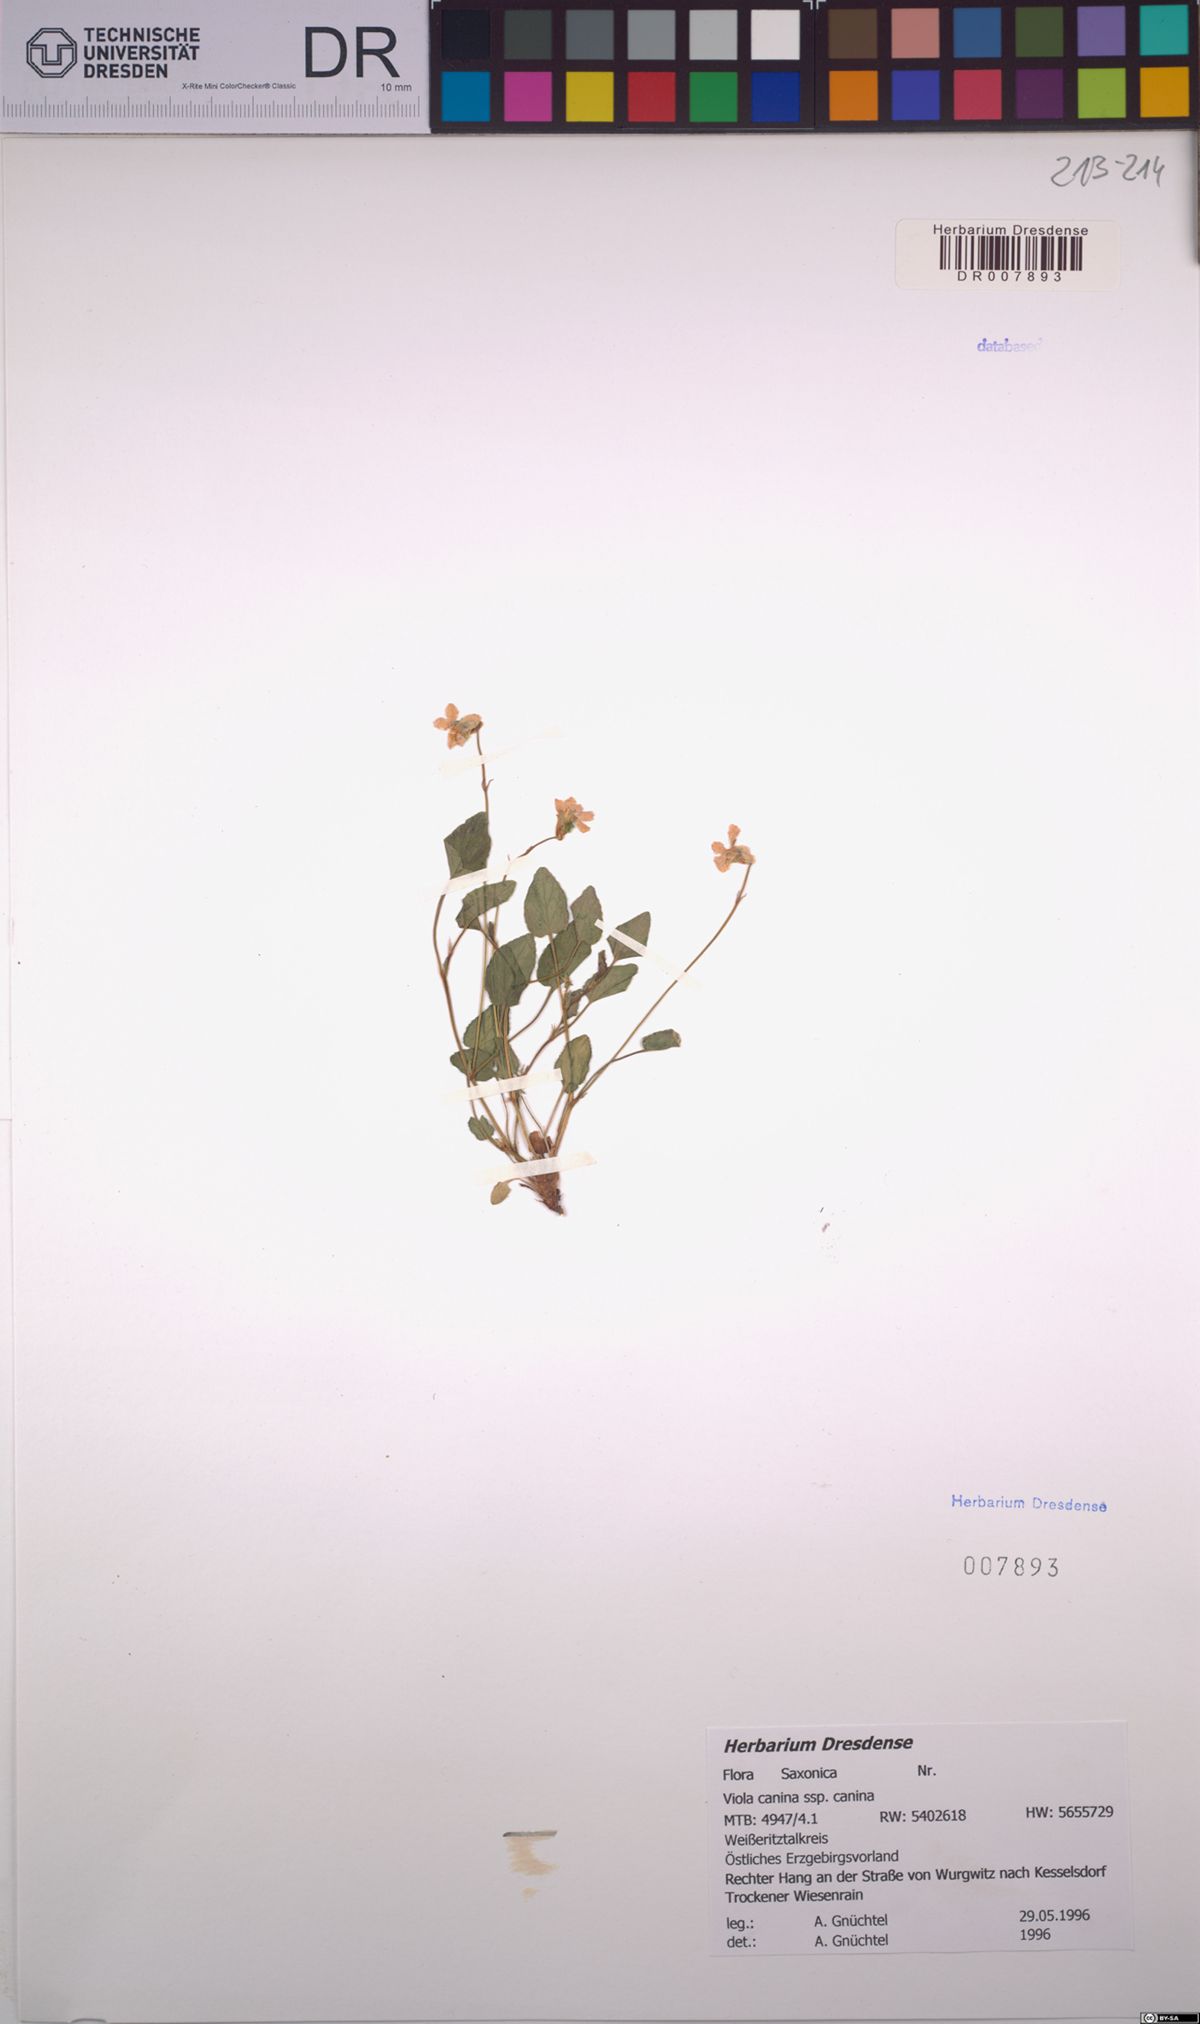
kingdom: Plantae
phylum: Tracheophyta
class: Magnoliopsida
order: Malpighiales
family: Violaceae
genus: Viola
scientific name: Viola canina
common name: Heath dog-violet
